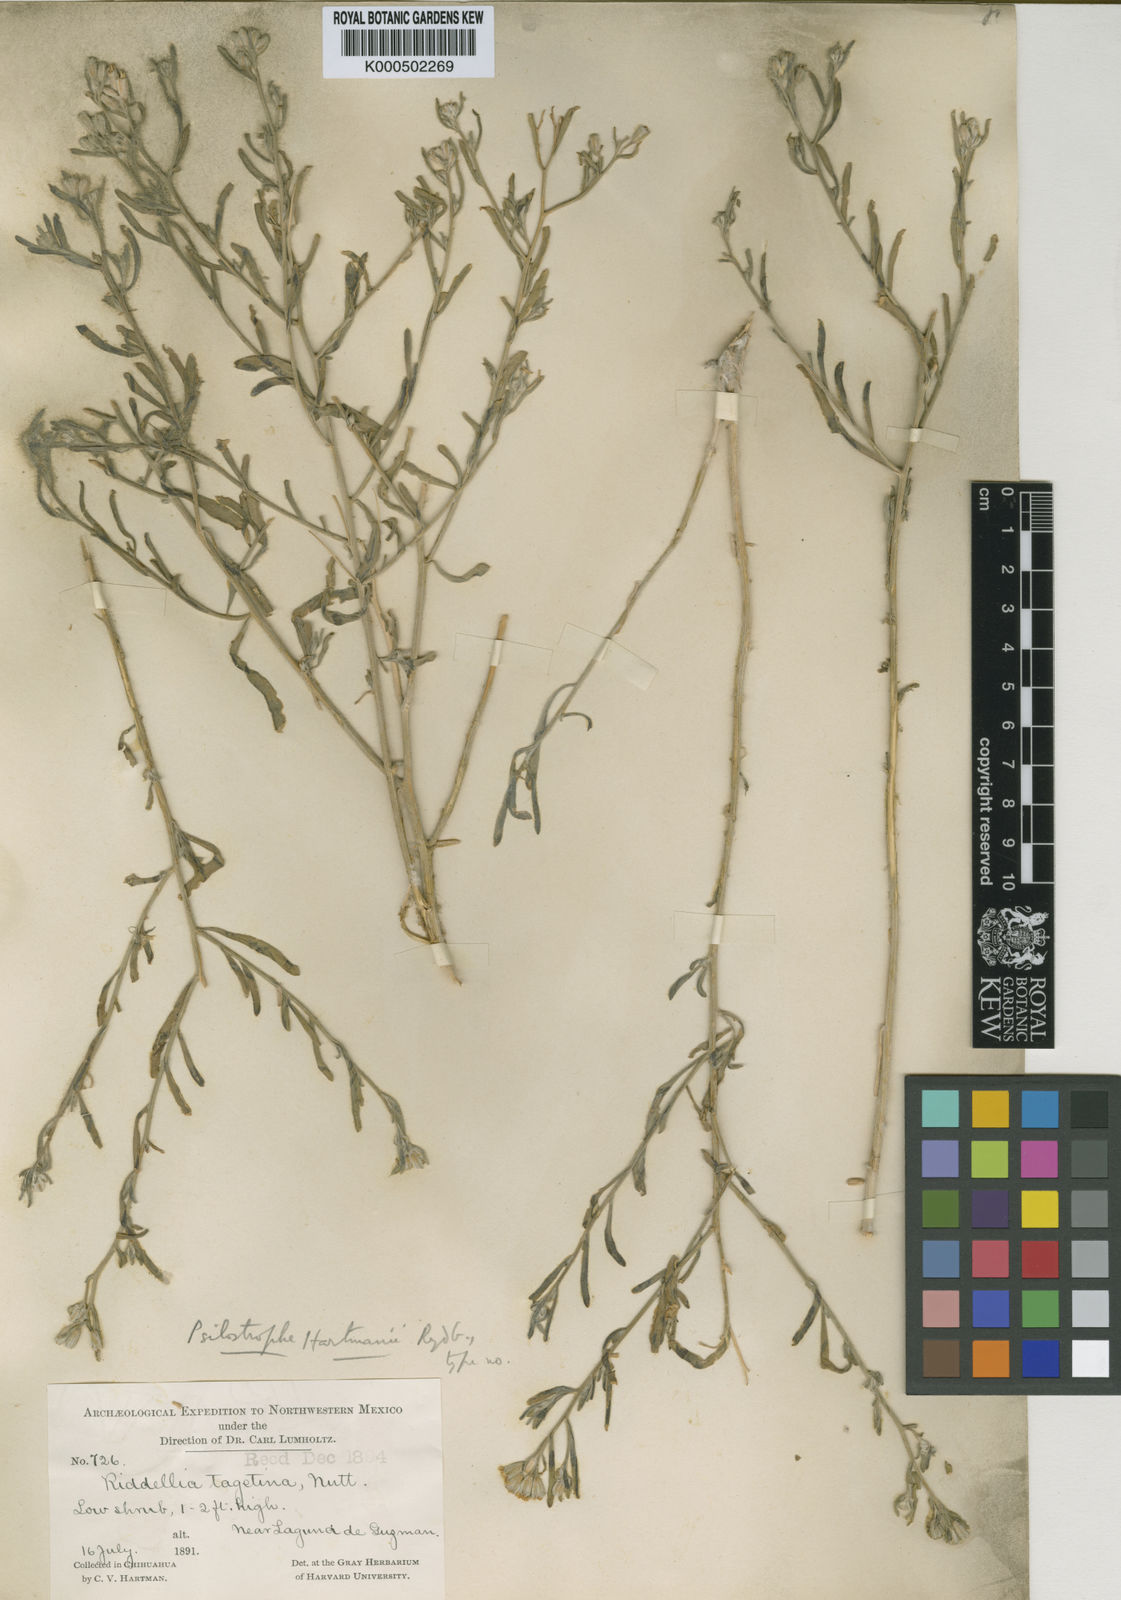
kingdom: Plantae
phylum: Tracheophyta
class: Magnoliopsida
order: Asterales
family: Asteraceae
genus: Psilostrophe
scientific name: Psilostrophe hartmanii
